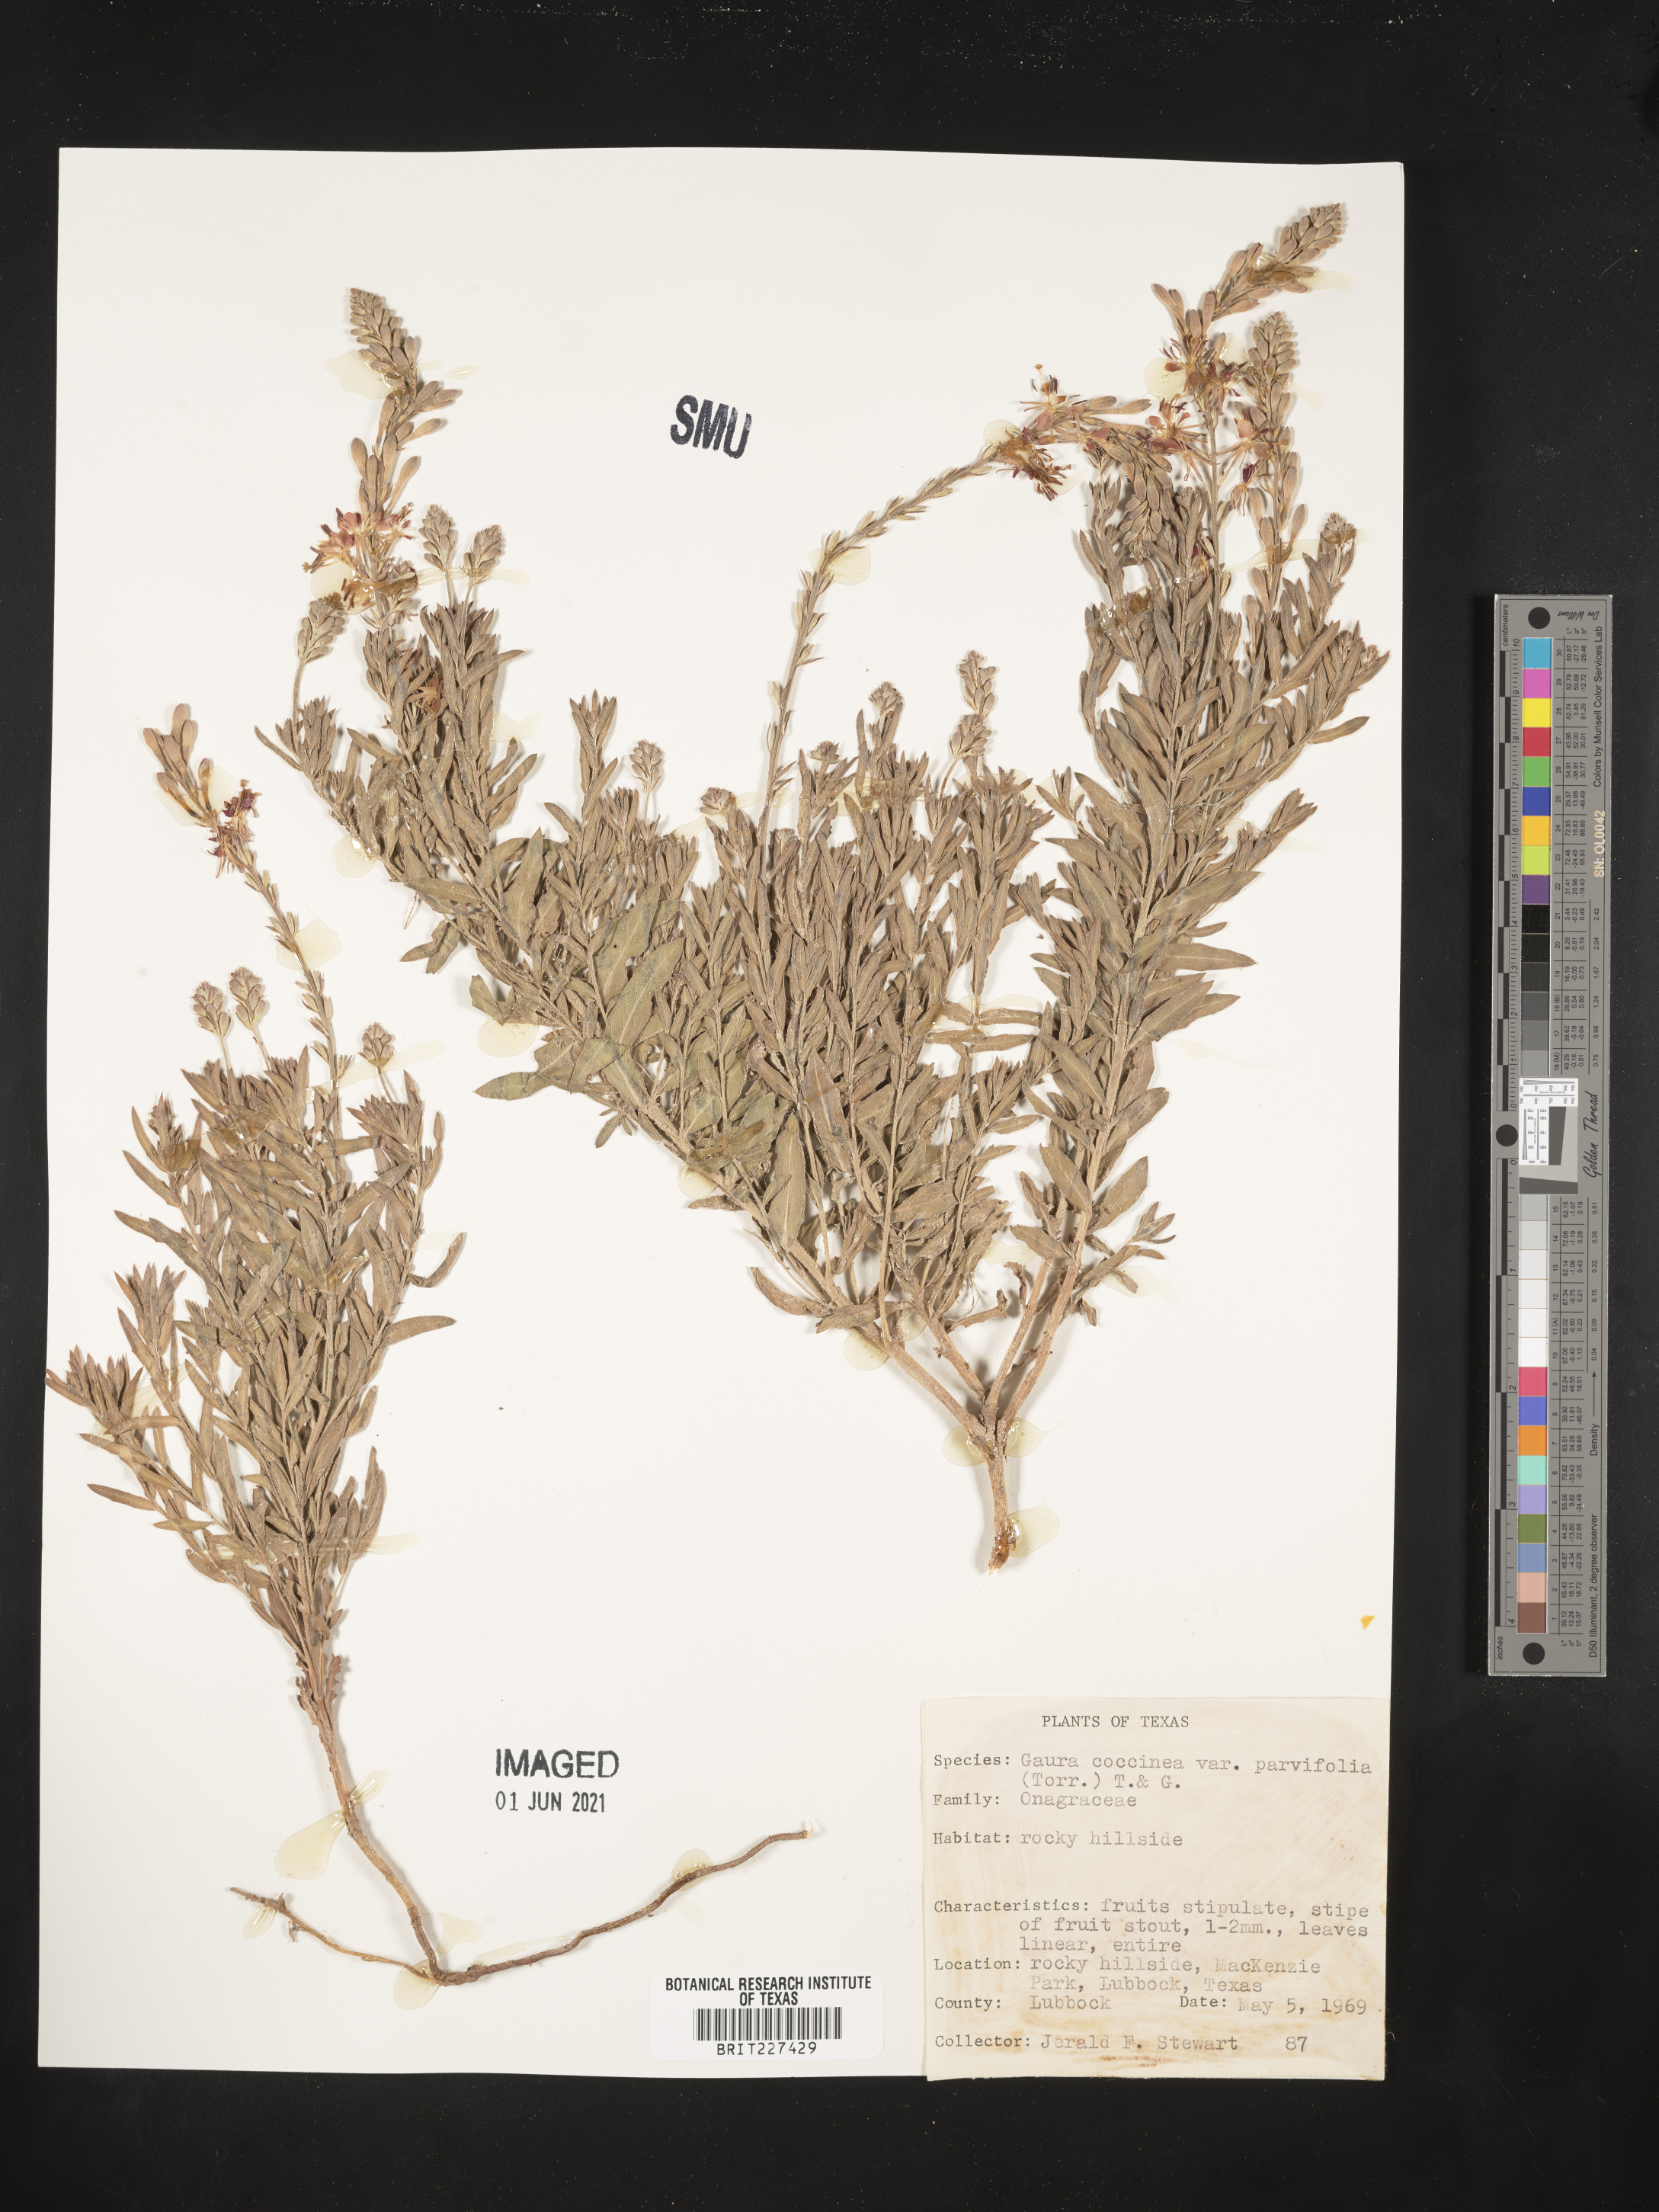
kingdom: Plantae
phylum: Tracheophyta
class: Magnoliopsida
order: Myrtales
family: Onagraceae
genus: Oenothera
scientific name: Oenothera suffrutescens
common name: Scarlet beeblossom
